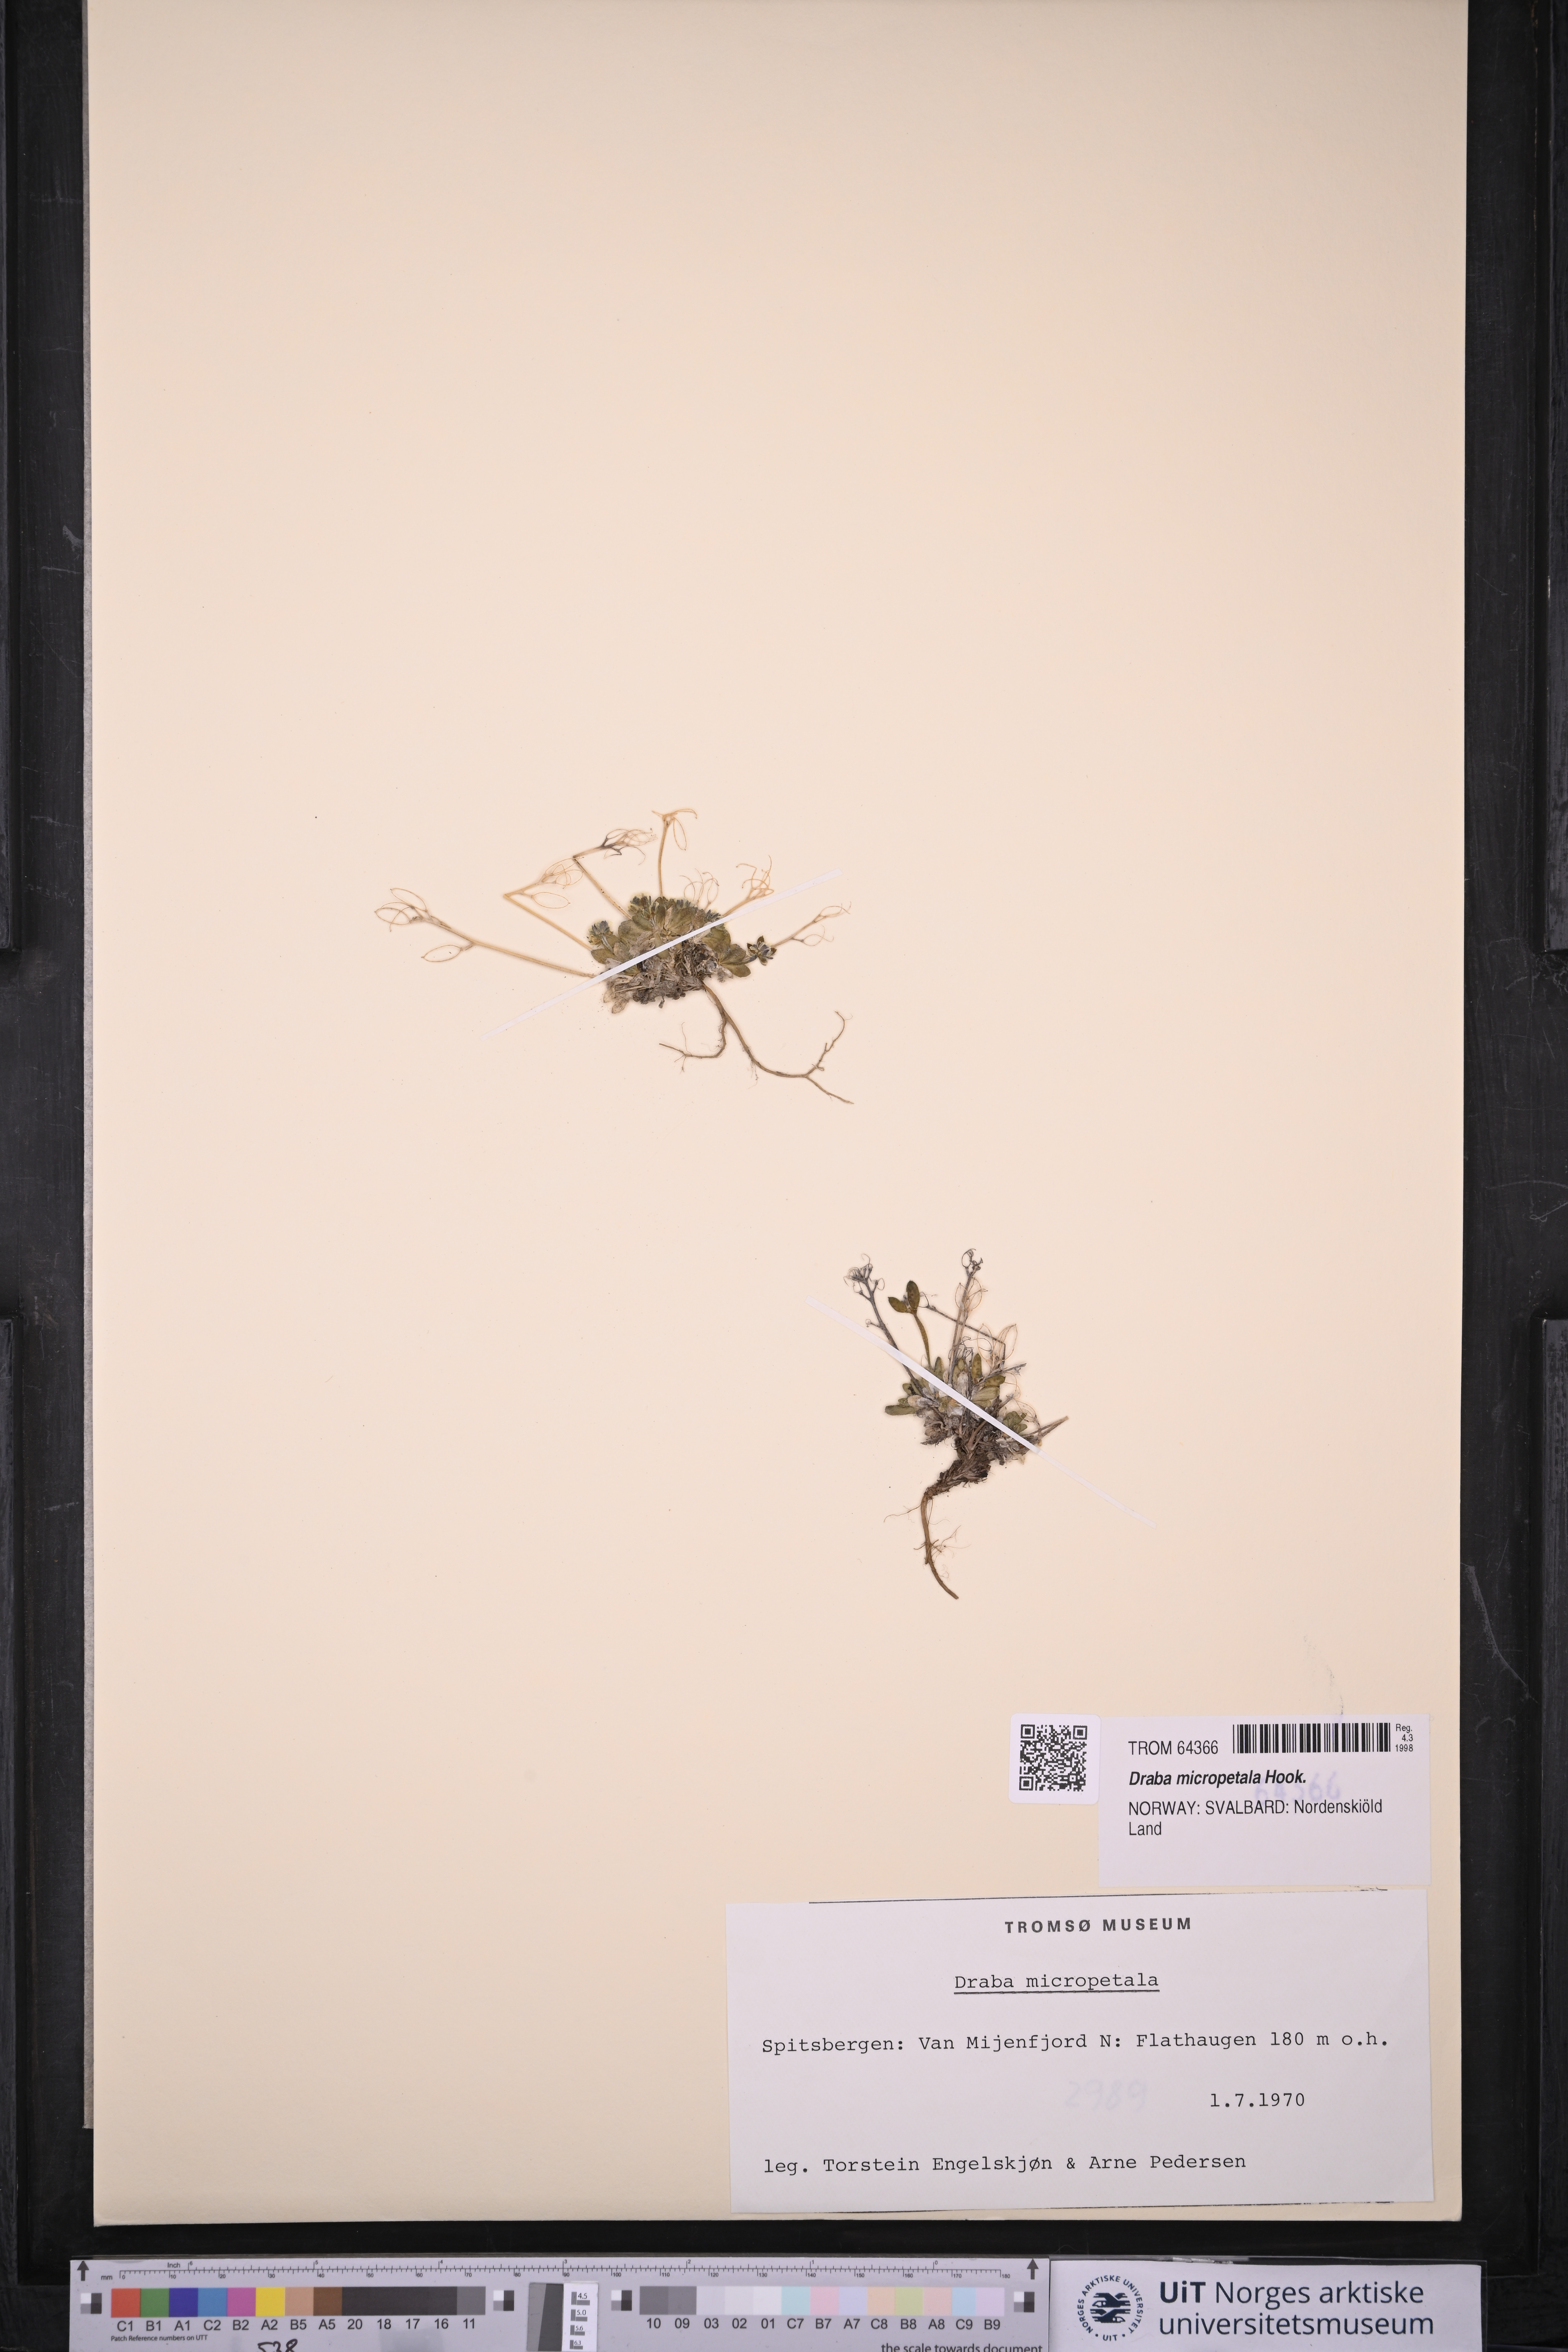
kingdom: Plantae
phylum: Tracheophyta
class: Magnoliopsida
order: Brassicales
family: Brassicaceae
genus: Draba
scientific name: Draba micropetala
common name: Small-flowered draba
